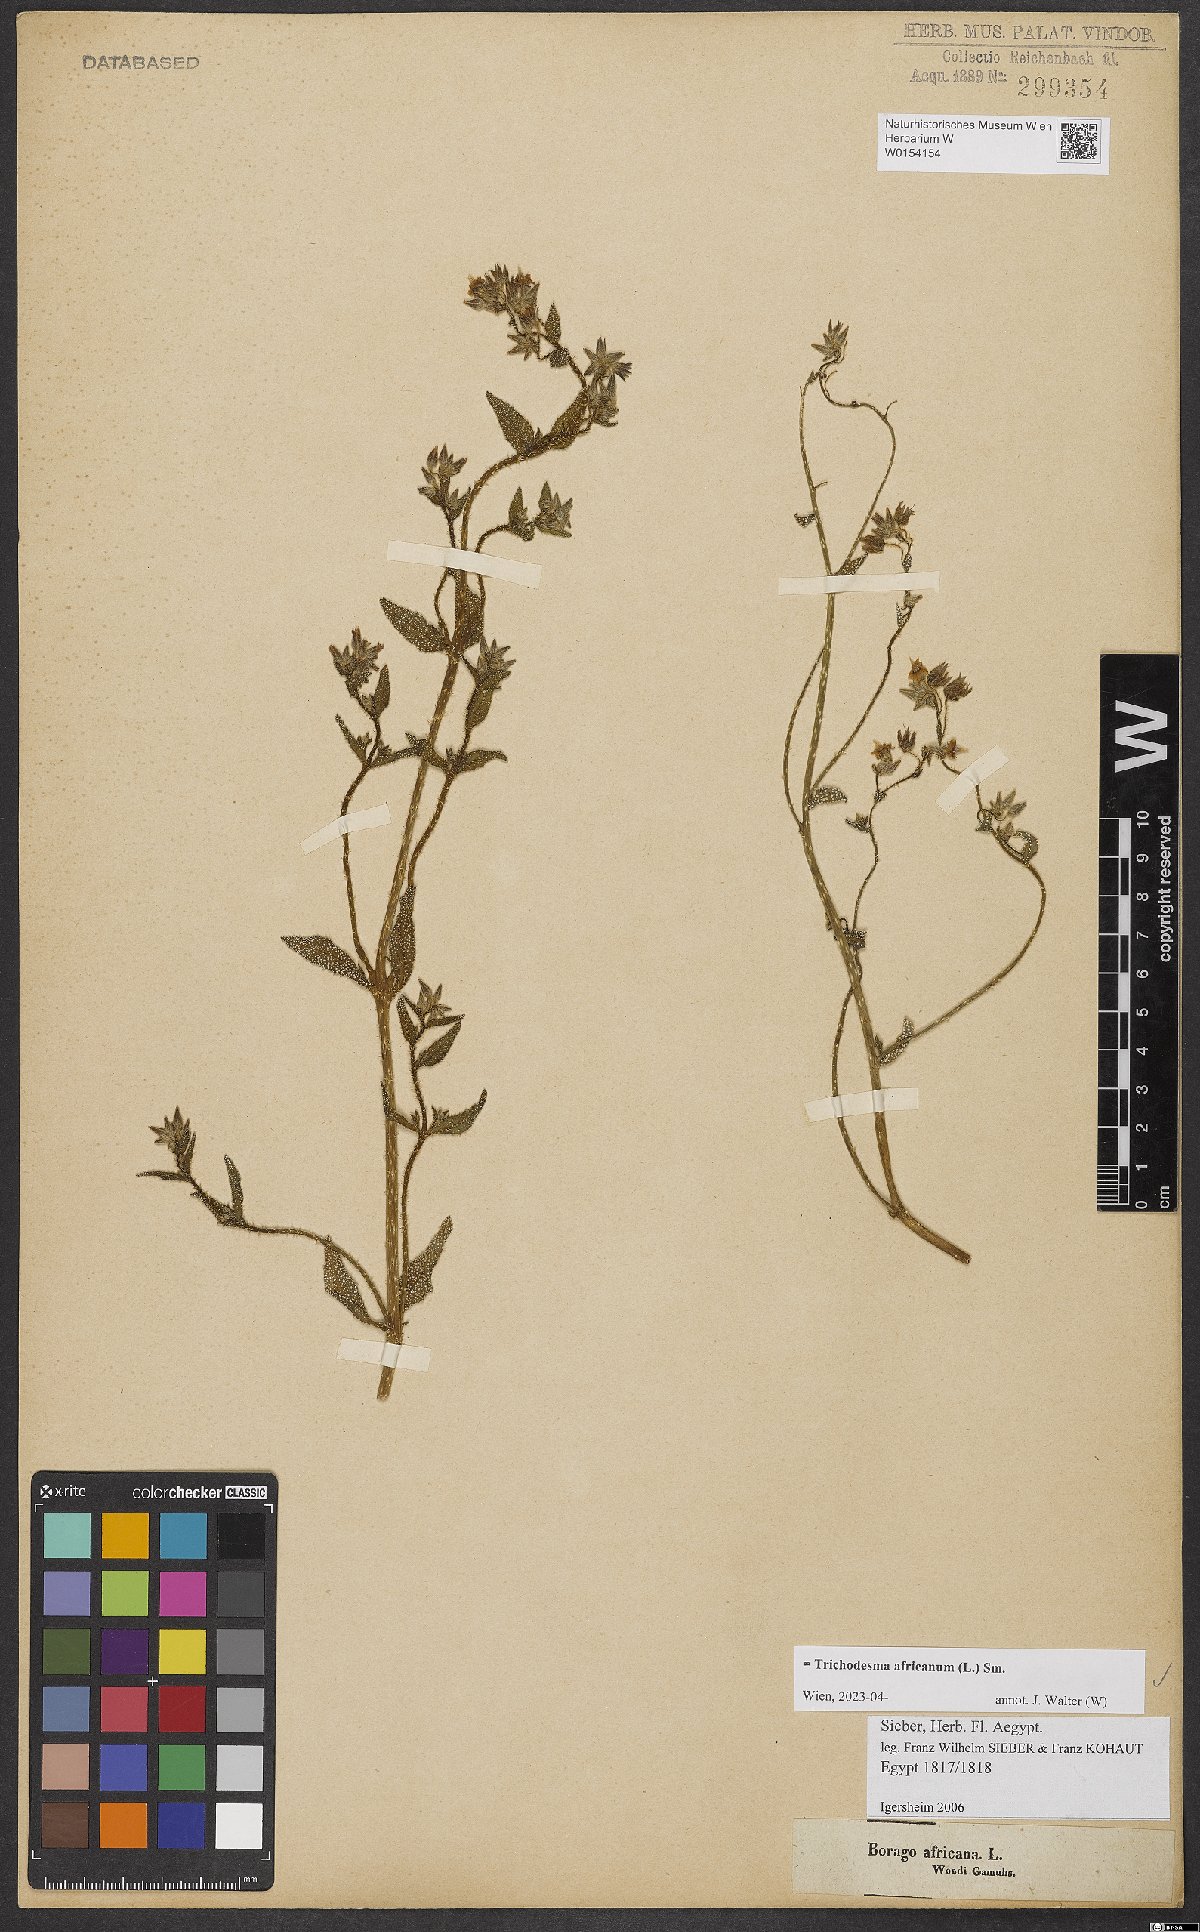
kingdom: Plantae
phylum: Tracheophyta
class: Magnoliopsida
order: Boraginales
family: Boraginaceae
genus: Trichodesma
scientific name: Trichodesma africanum
